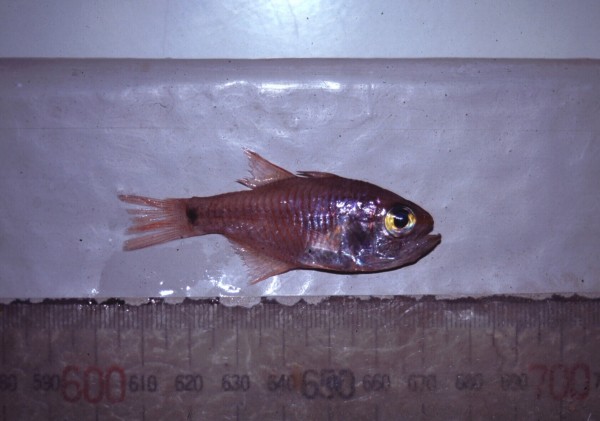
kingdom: Animalia
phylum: Chordata
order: Perciformes
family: Apogonidae
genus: Taeniamia
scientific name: Taeniamia fucata
